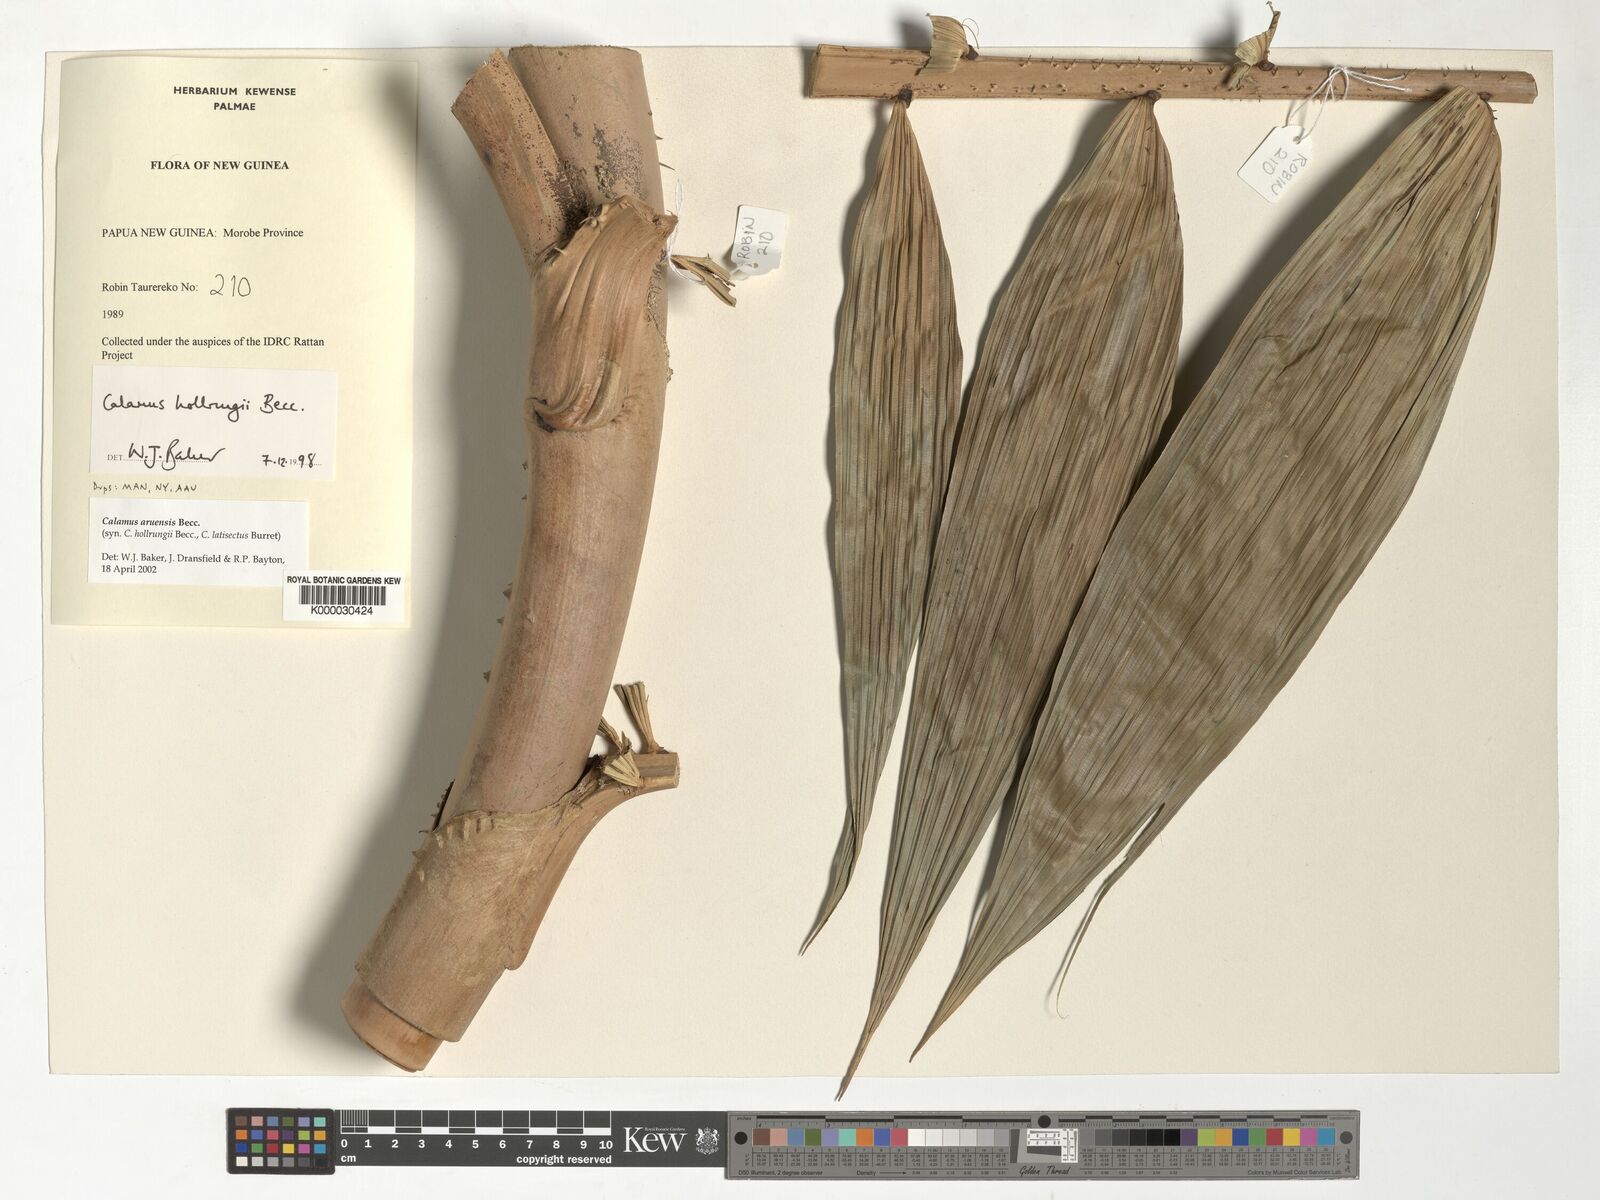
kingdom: Plantae
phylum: Tracheophyta
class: Liliopsida
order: Arecales
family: Arecaceae
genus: Calamus
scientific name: Calamus aruensis
